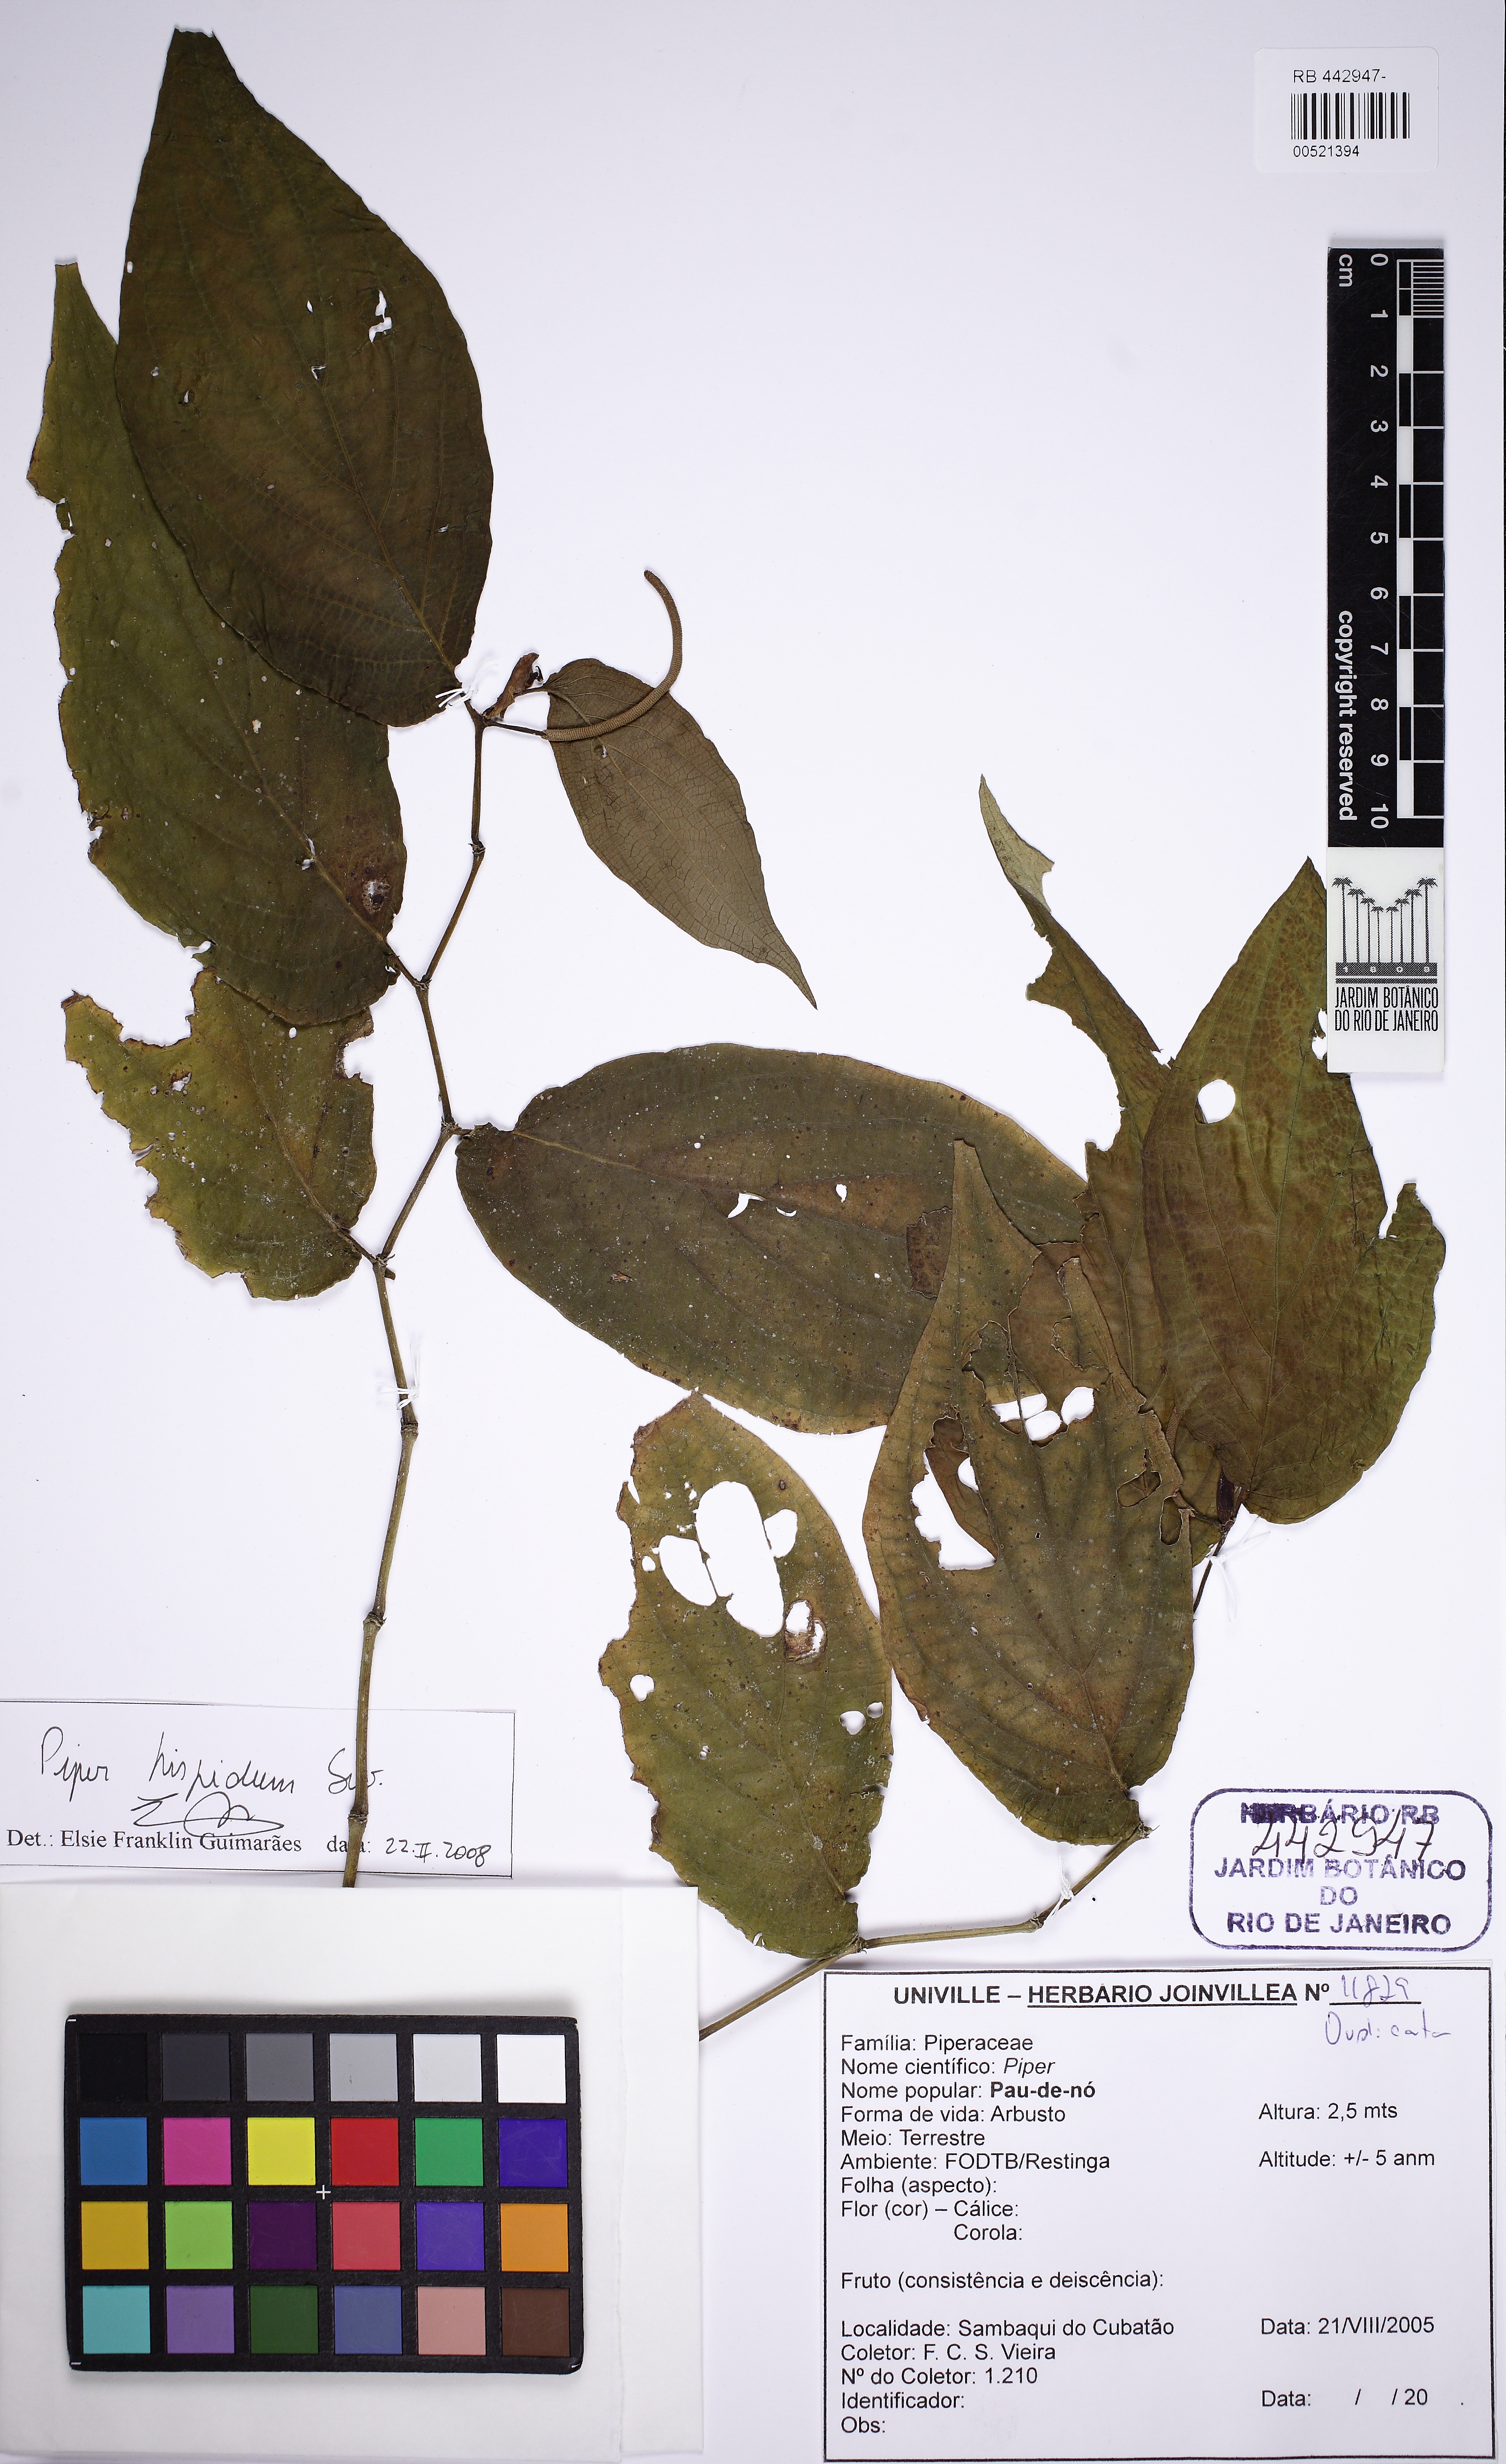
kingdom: Plantae
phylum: Tracheophyta
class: Magnoliopsida
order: Piperales
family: Piperaceae
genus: Piper
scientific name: Piper hispidum
